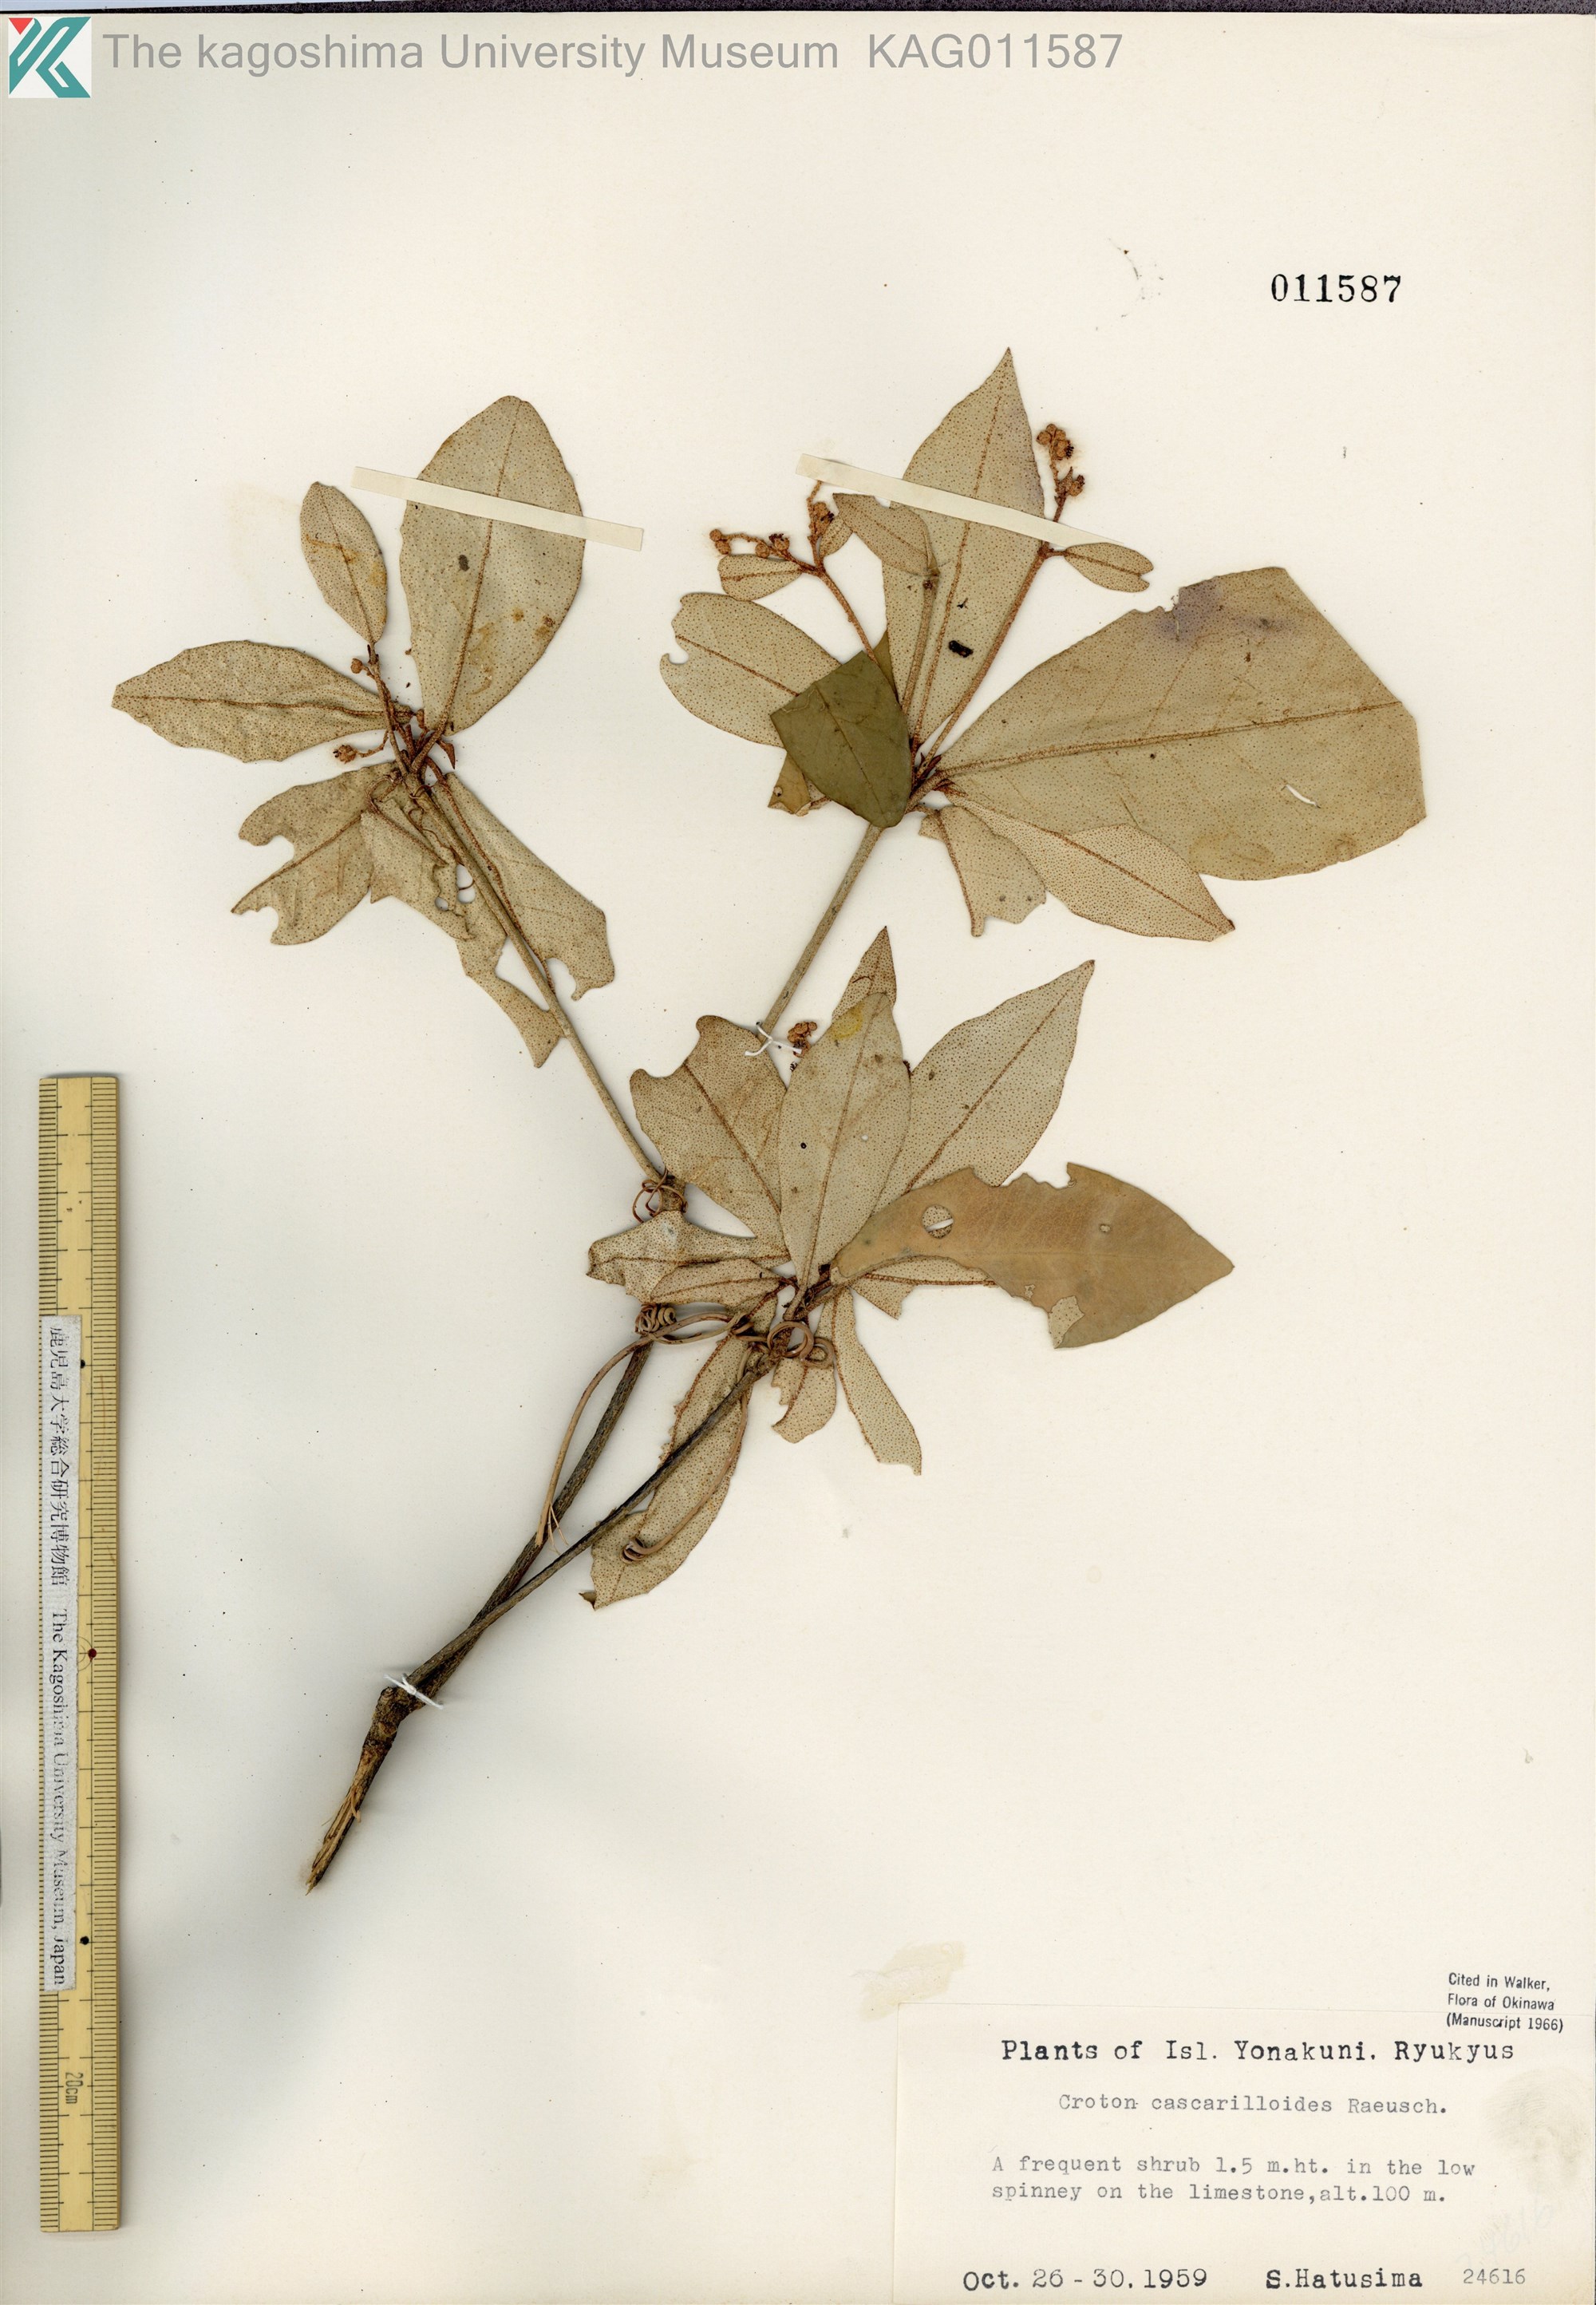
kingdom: Plantae
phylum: Tracheophyta
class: Magnoliopsida
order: Malpighiales
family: Euphorbiaceae
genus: Croton
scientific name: Croton cascarilloides
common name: グミモドキ
